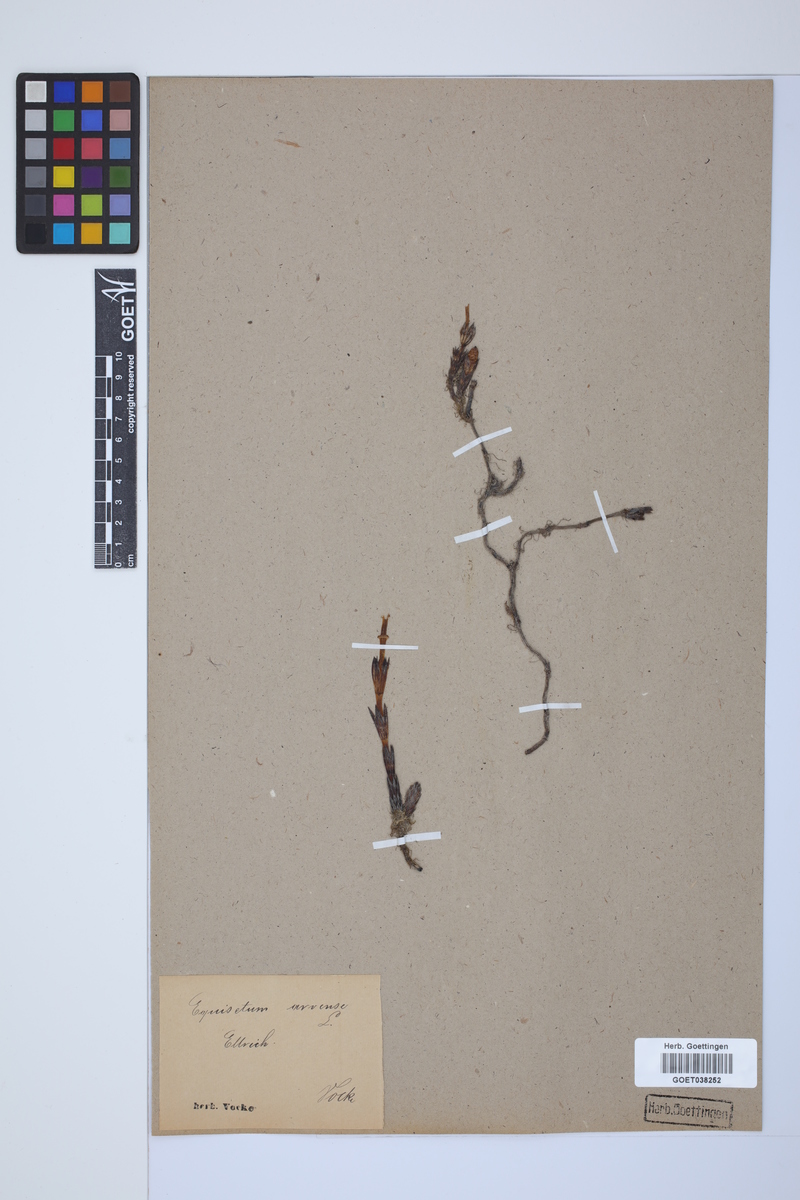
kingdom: Plantae
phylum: Tracheophyta
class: Polypodiopsida
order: Equisetales
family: Equisetaceae
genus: Equisetum
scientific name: Equisetum arvense
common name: Field horsetail
